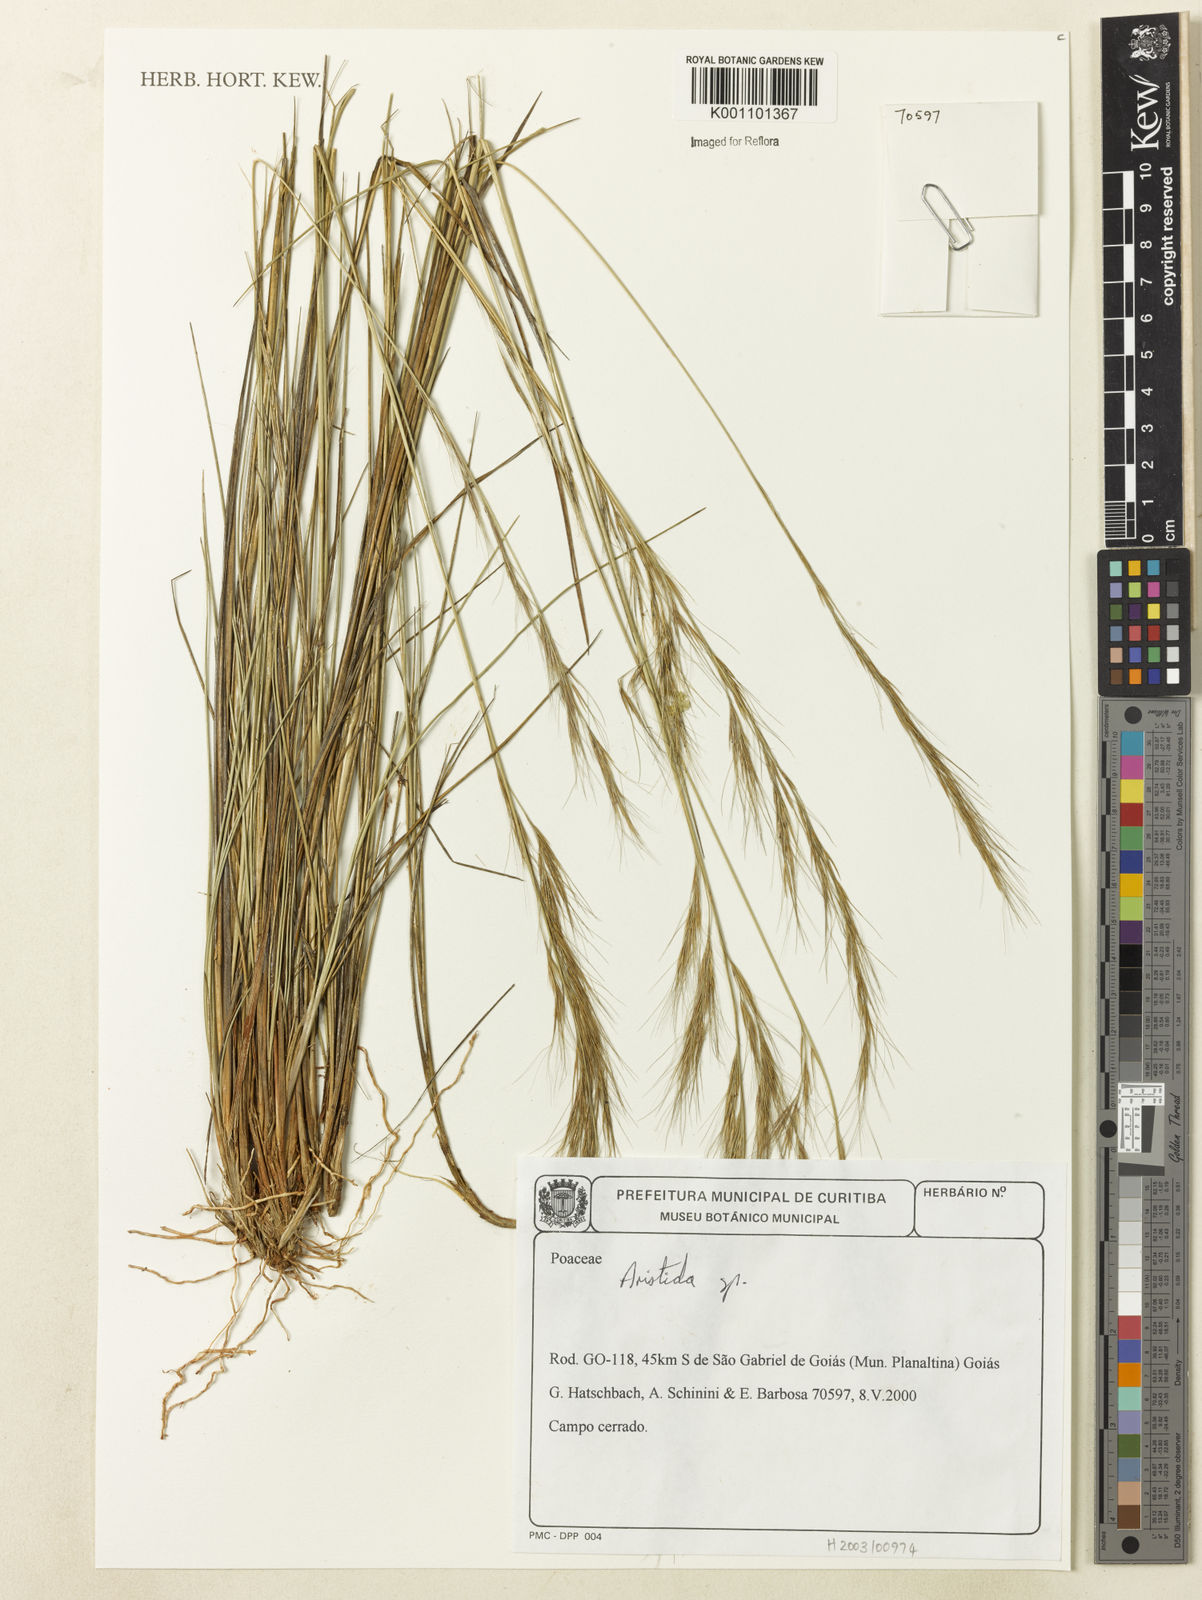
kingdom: Plantae
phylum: Tracheophyta
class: Liliopsida
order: Poales
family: Poaceae
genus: Aristida
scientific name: Aristida
